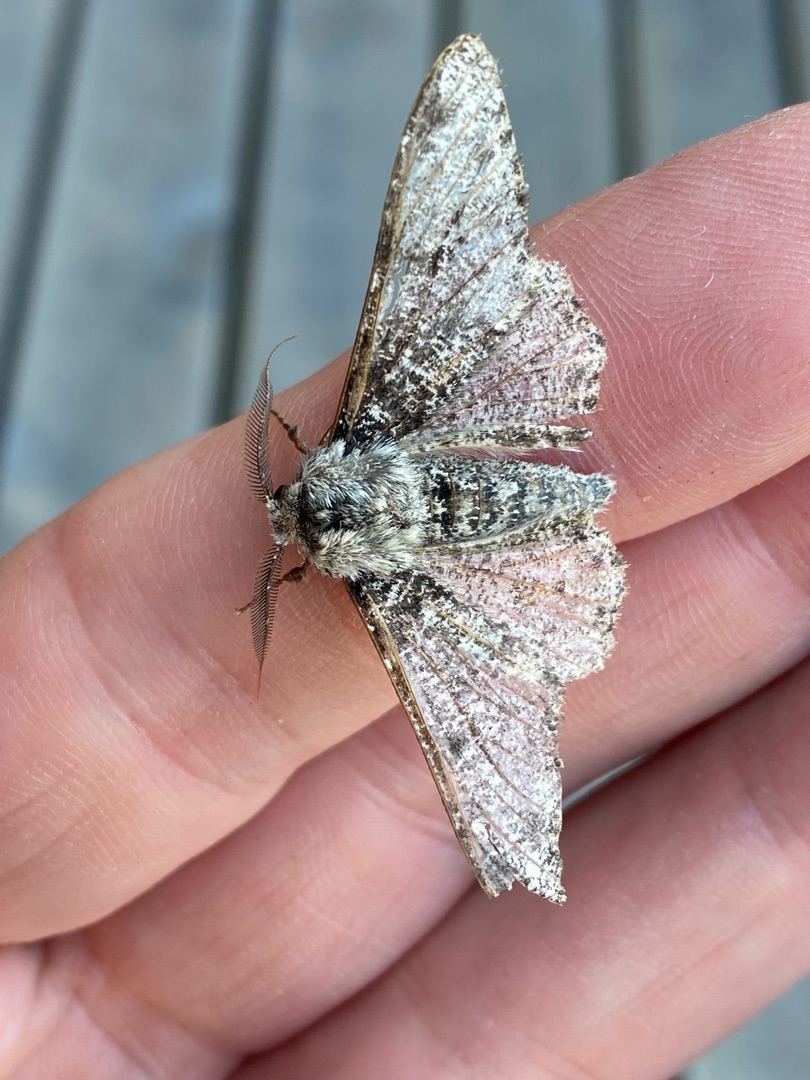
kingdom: Animalia
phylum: Arthropoda
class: Insecta
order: Lepidoptera
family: Geometridae
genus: Biston
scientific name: Biston betularia
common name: Birkemåler
